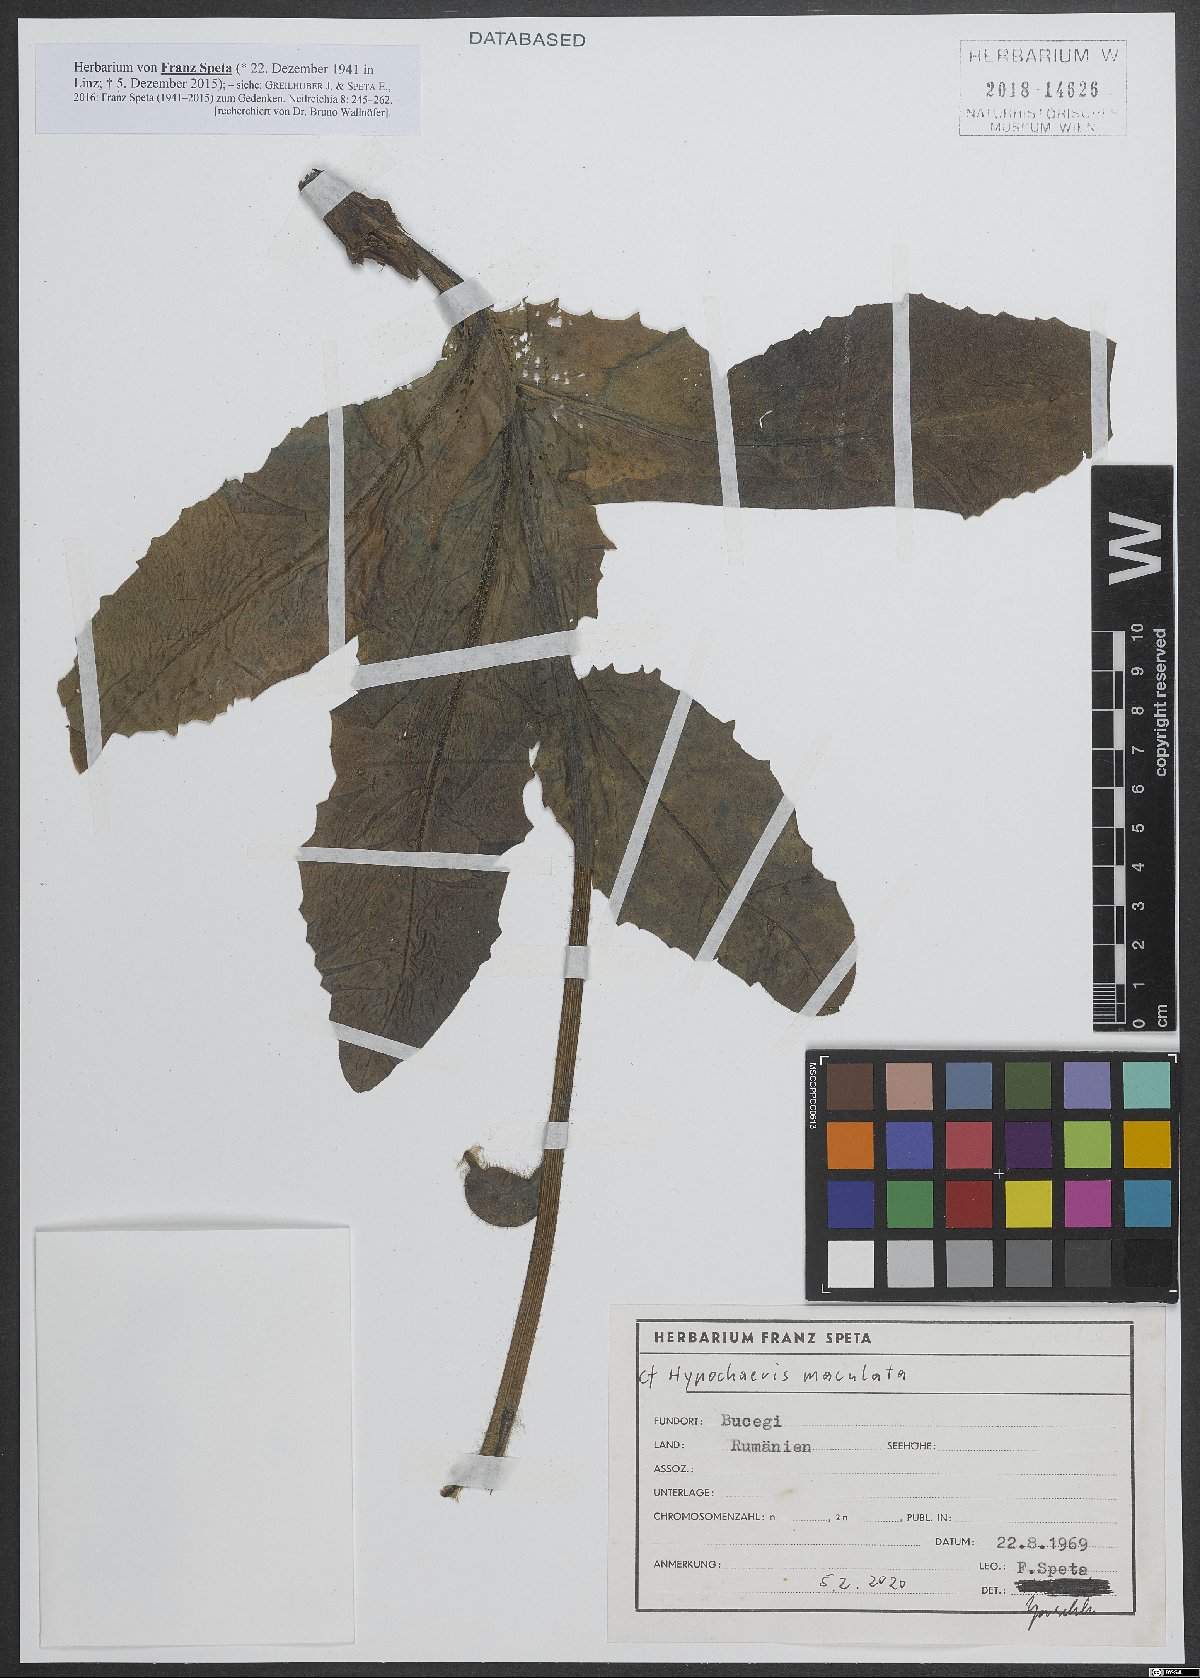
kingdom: Plantae
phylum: Tracheophyta
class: Magnoliopsida
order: Asterales
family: Asteraceae
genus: Trommsdorffia
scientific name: Trommsdorffia maculata
